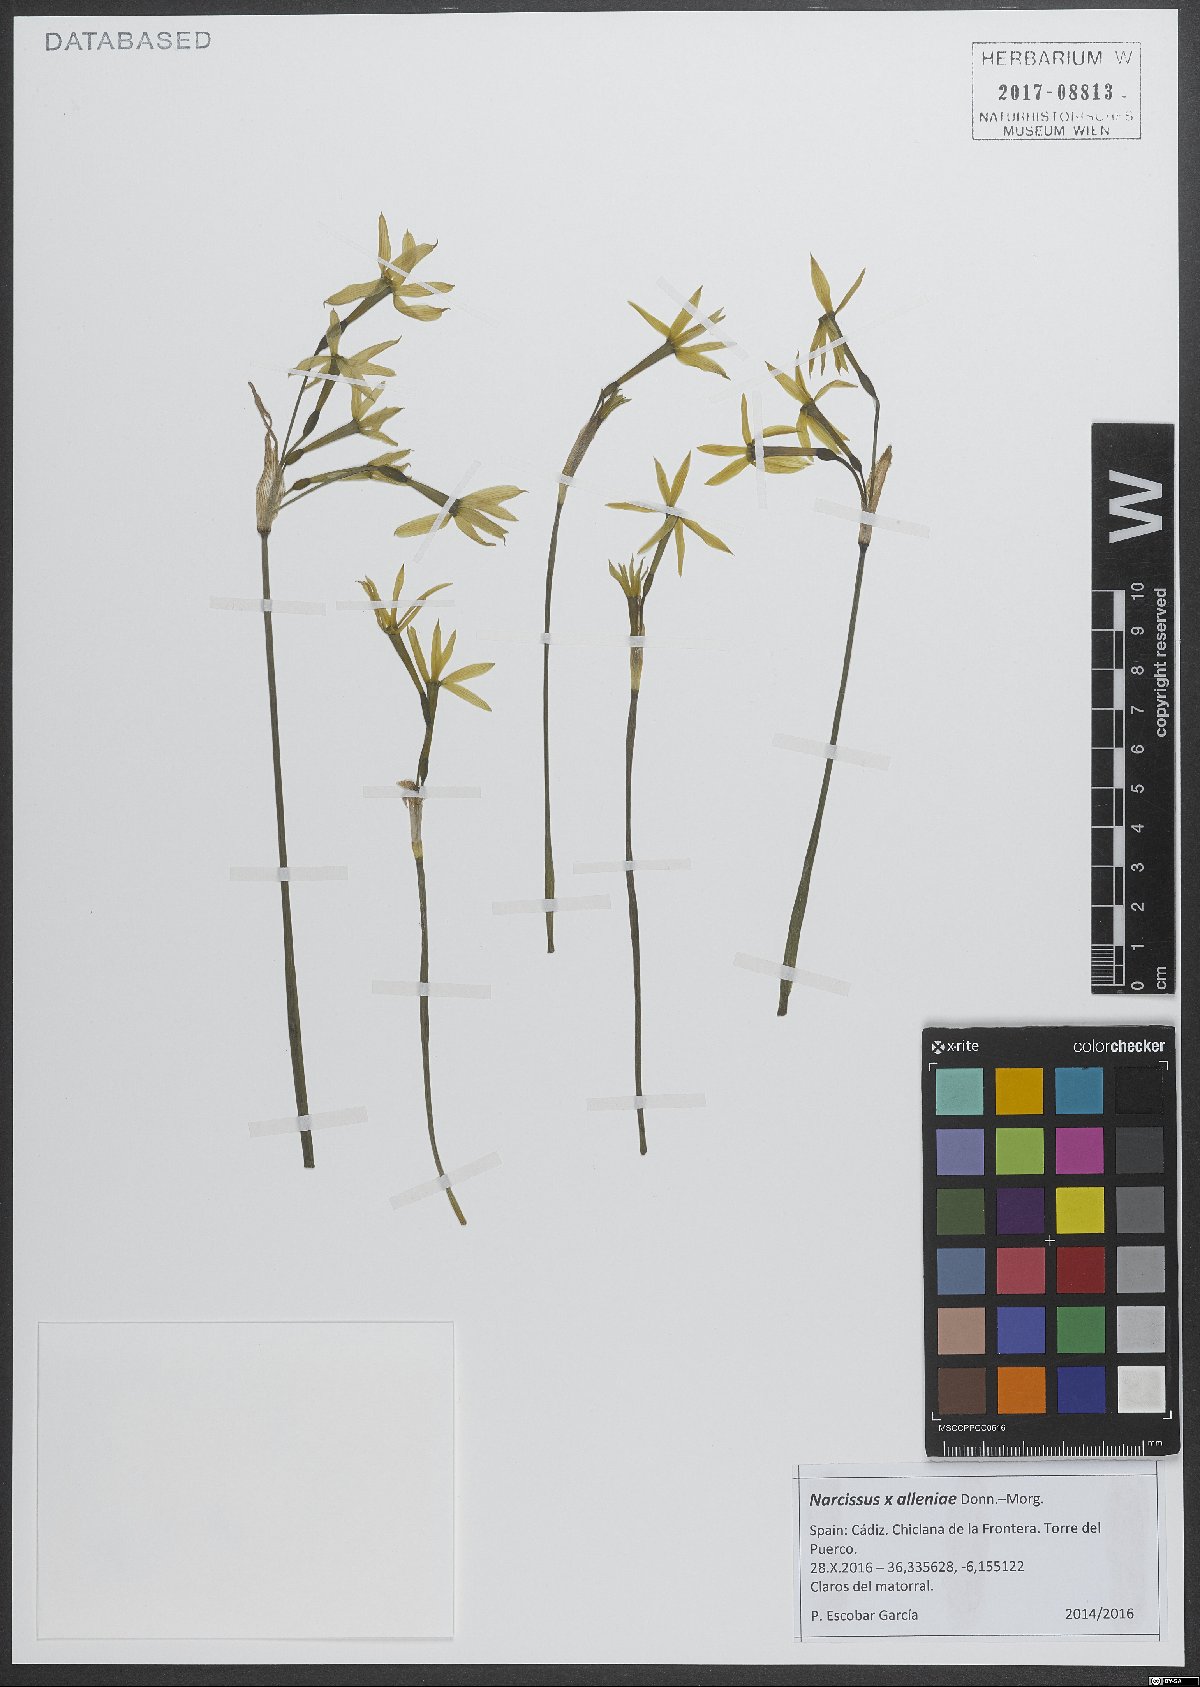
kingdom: Plantae
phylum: Tracheophyta
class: Liliopsida
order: Asparagales
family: Amaryllidaceae
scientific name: Amaryllidaceae
